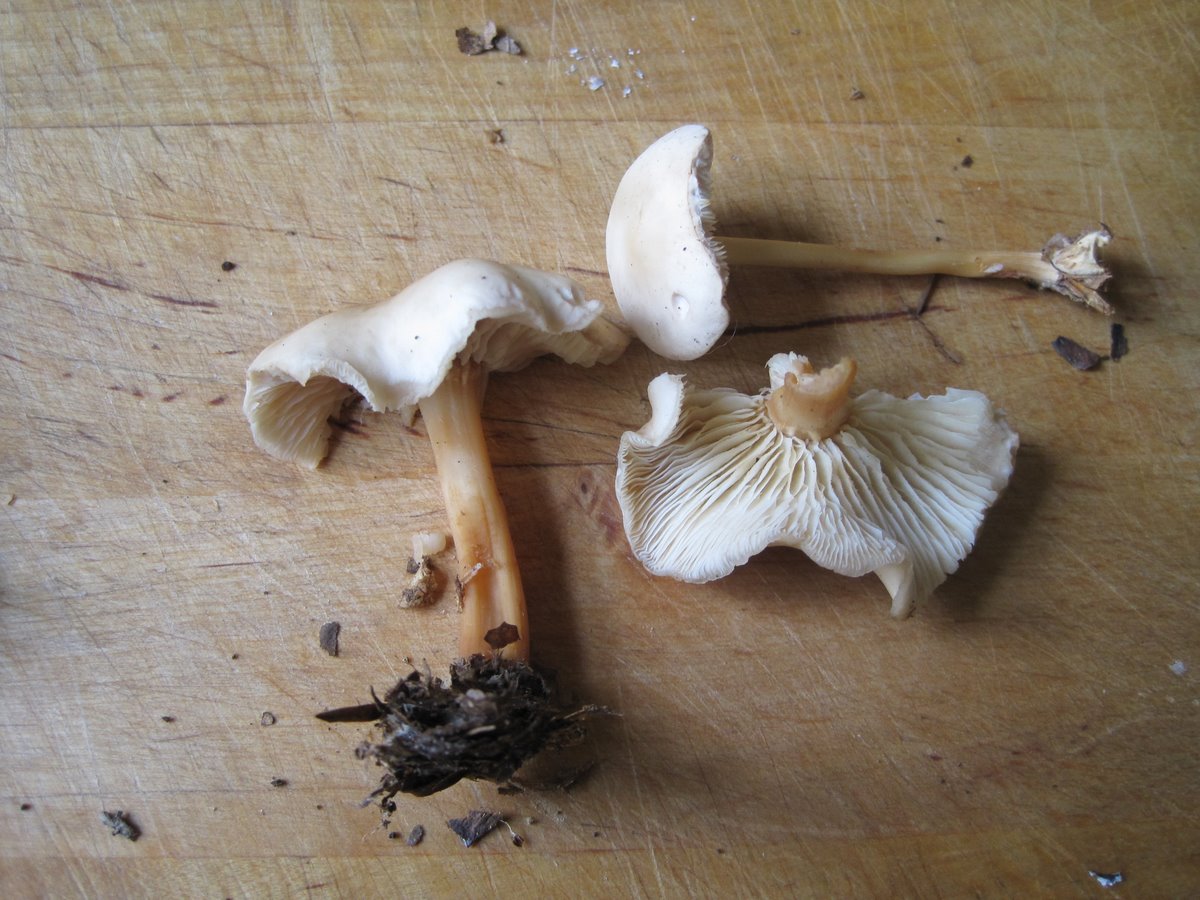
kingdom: Fungi
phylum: Basidiomycota
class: Agaricomycetes
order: Agaricales
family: Omphalotaceae
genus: Gymnopus
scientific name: Gymnopus aquosus
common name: bleg fladhat
